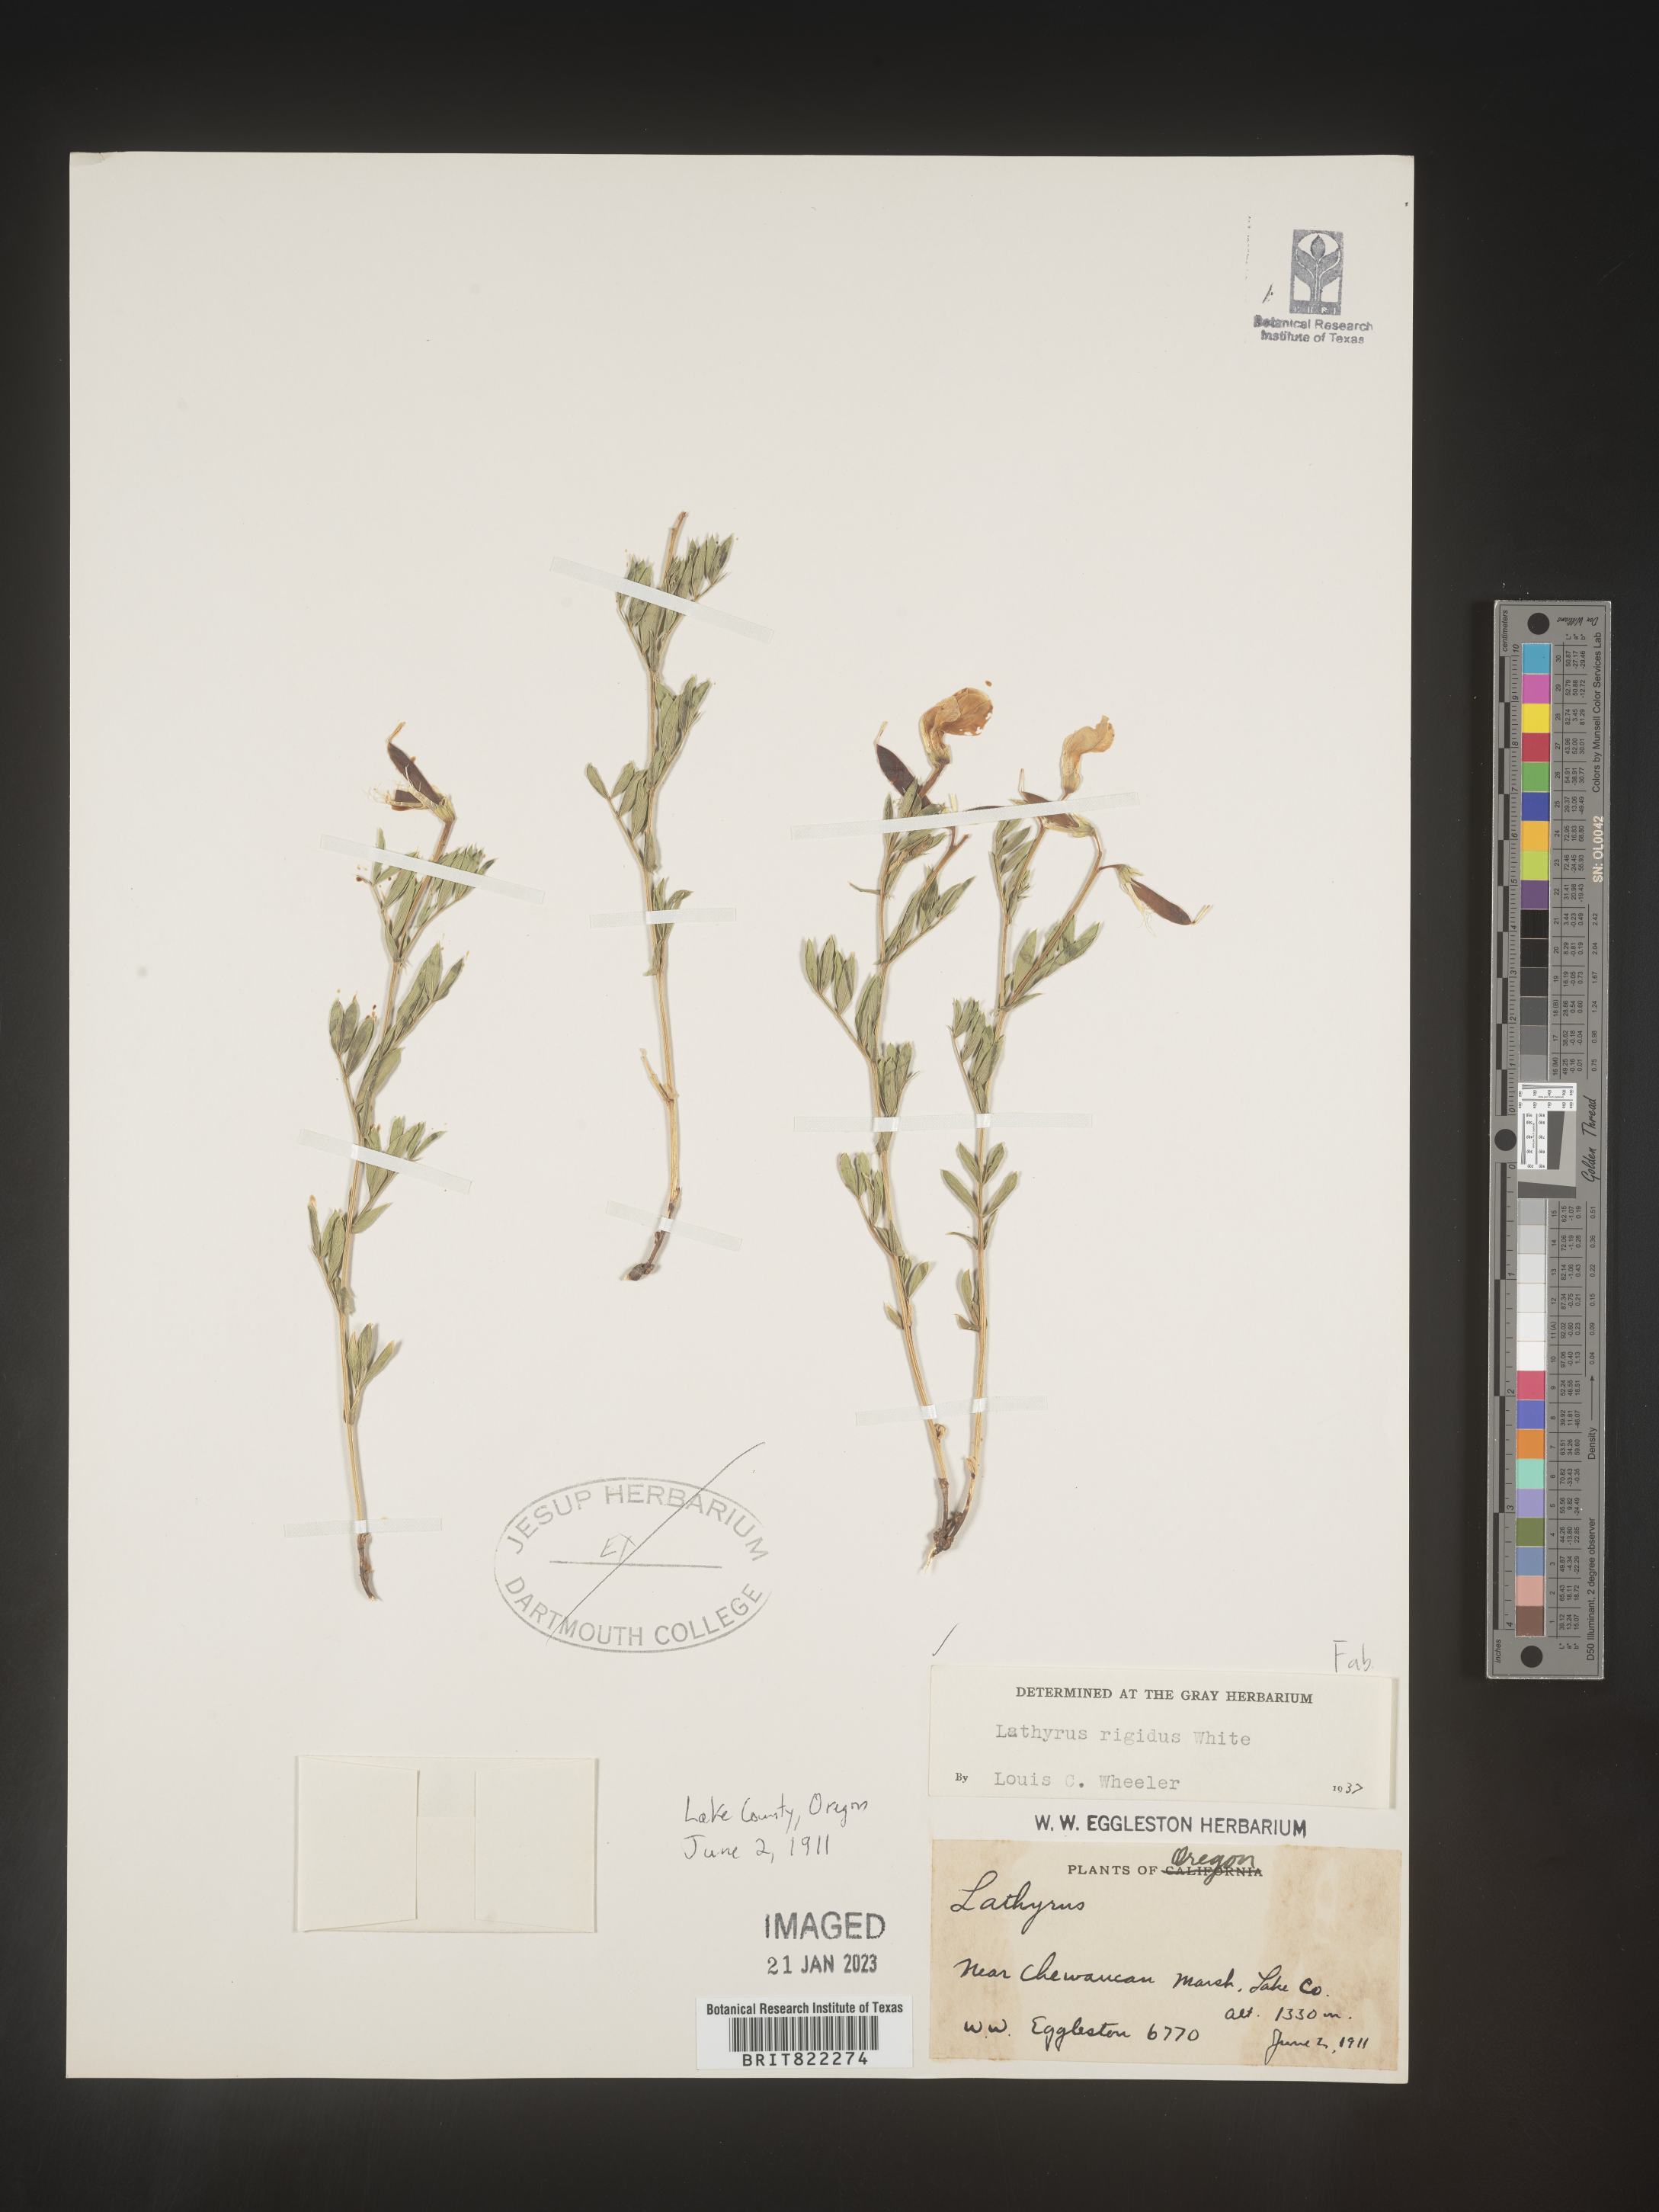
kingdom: Plantae
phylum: Tracheophyta
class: Magnoliopsida
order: Fabales
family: Fabaceae
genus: Lathyrus
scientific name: Lathyrus
